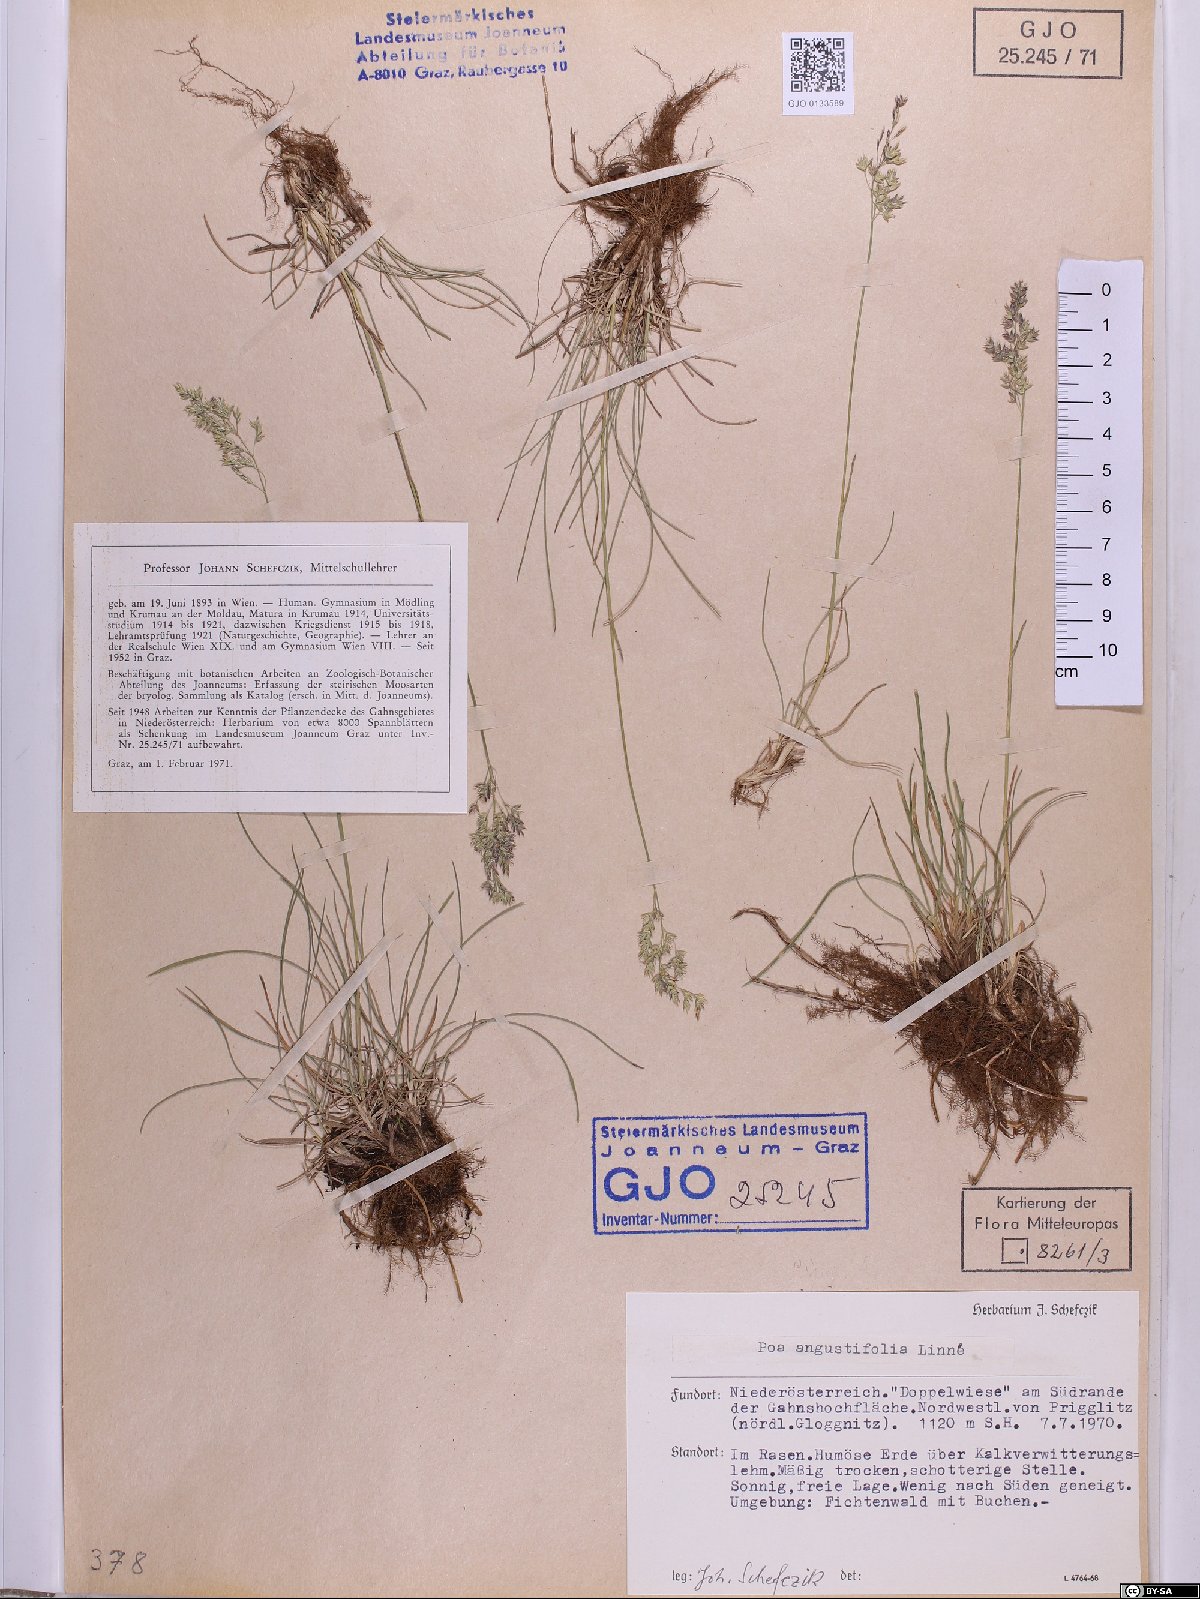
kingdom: Plantae
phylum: Tracheophyta
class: Liliopsida
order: Poales
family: Poaceae
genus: Poa
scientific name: Poa angustifolia
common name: Narrow-leaved meadow-grass
